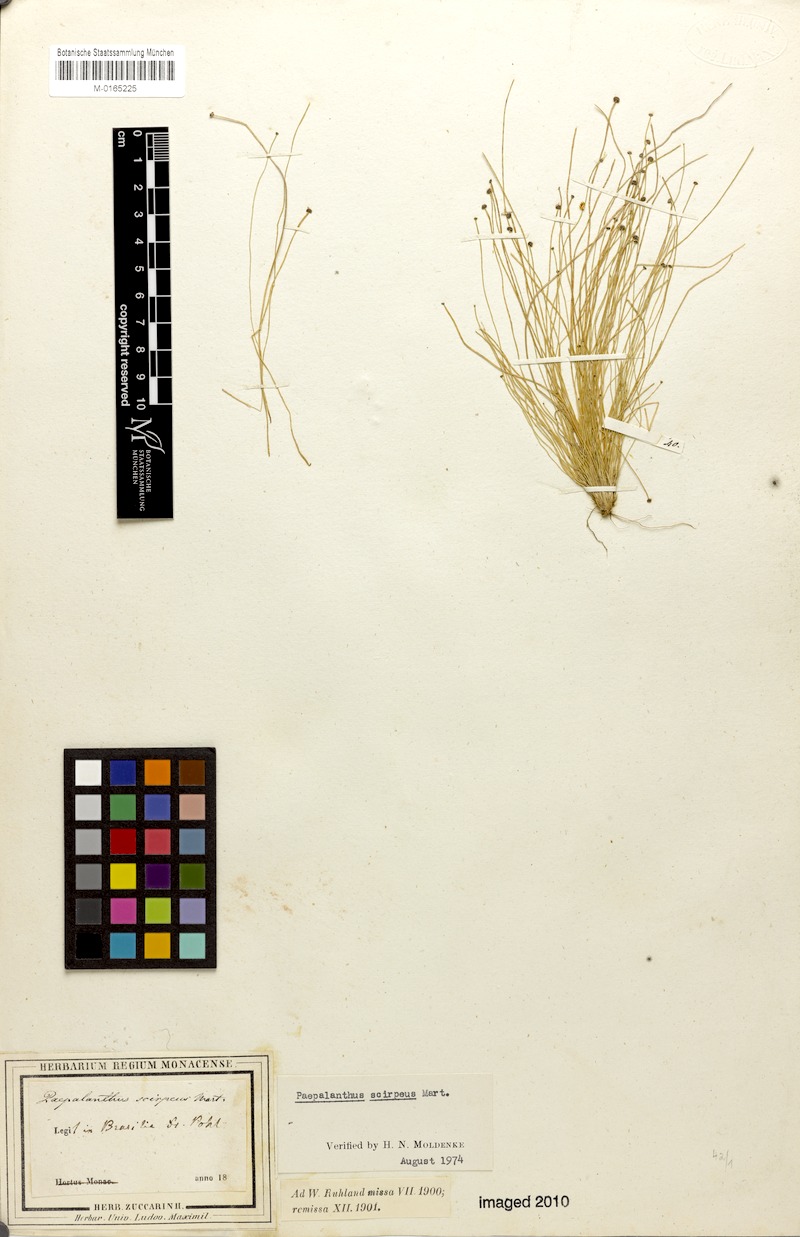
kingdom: Plantae
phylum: Tracheophyta
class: Liliopsida
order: Poales
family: Eriocaulaceae
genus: Paepalanthus
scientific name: Paepalanthus scirpeus
